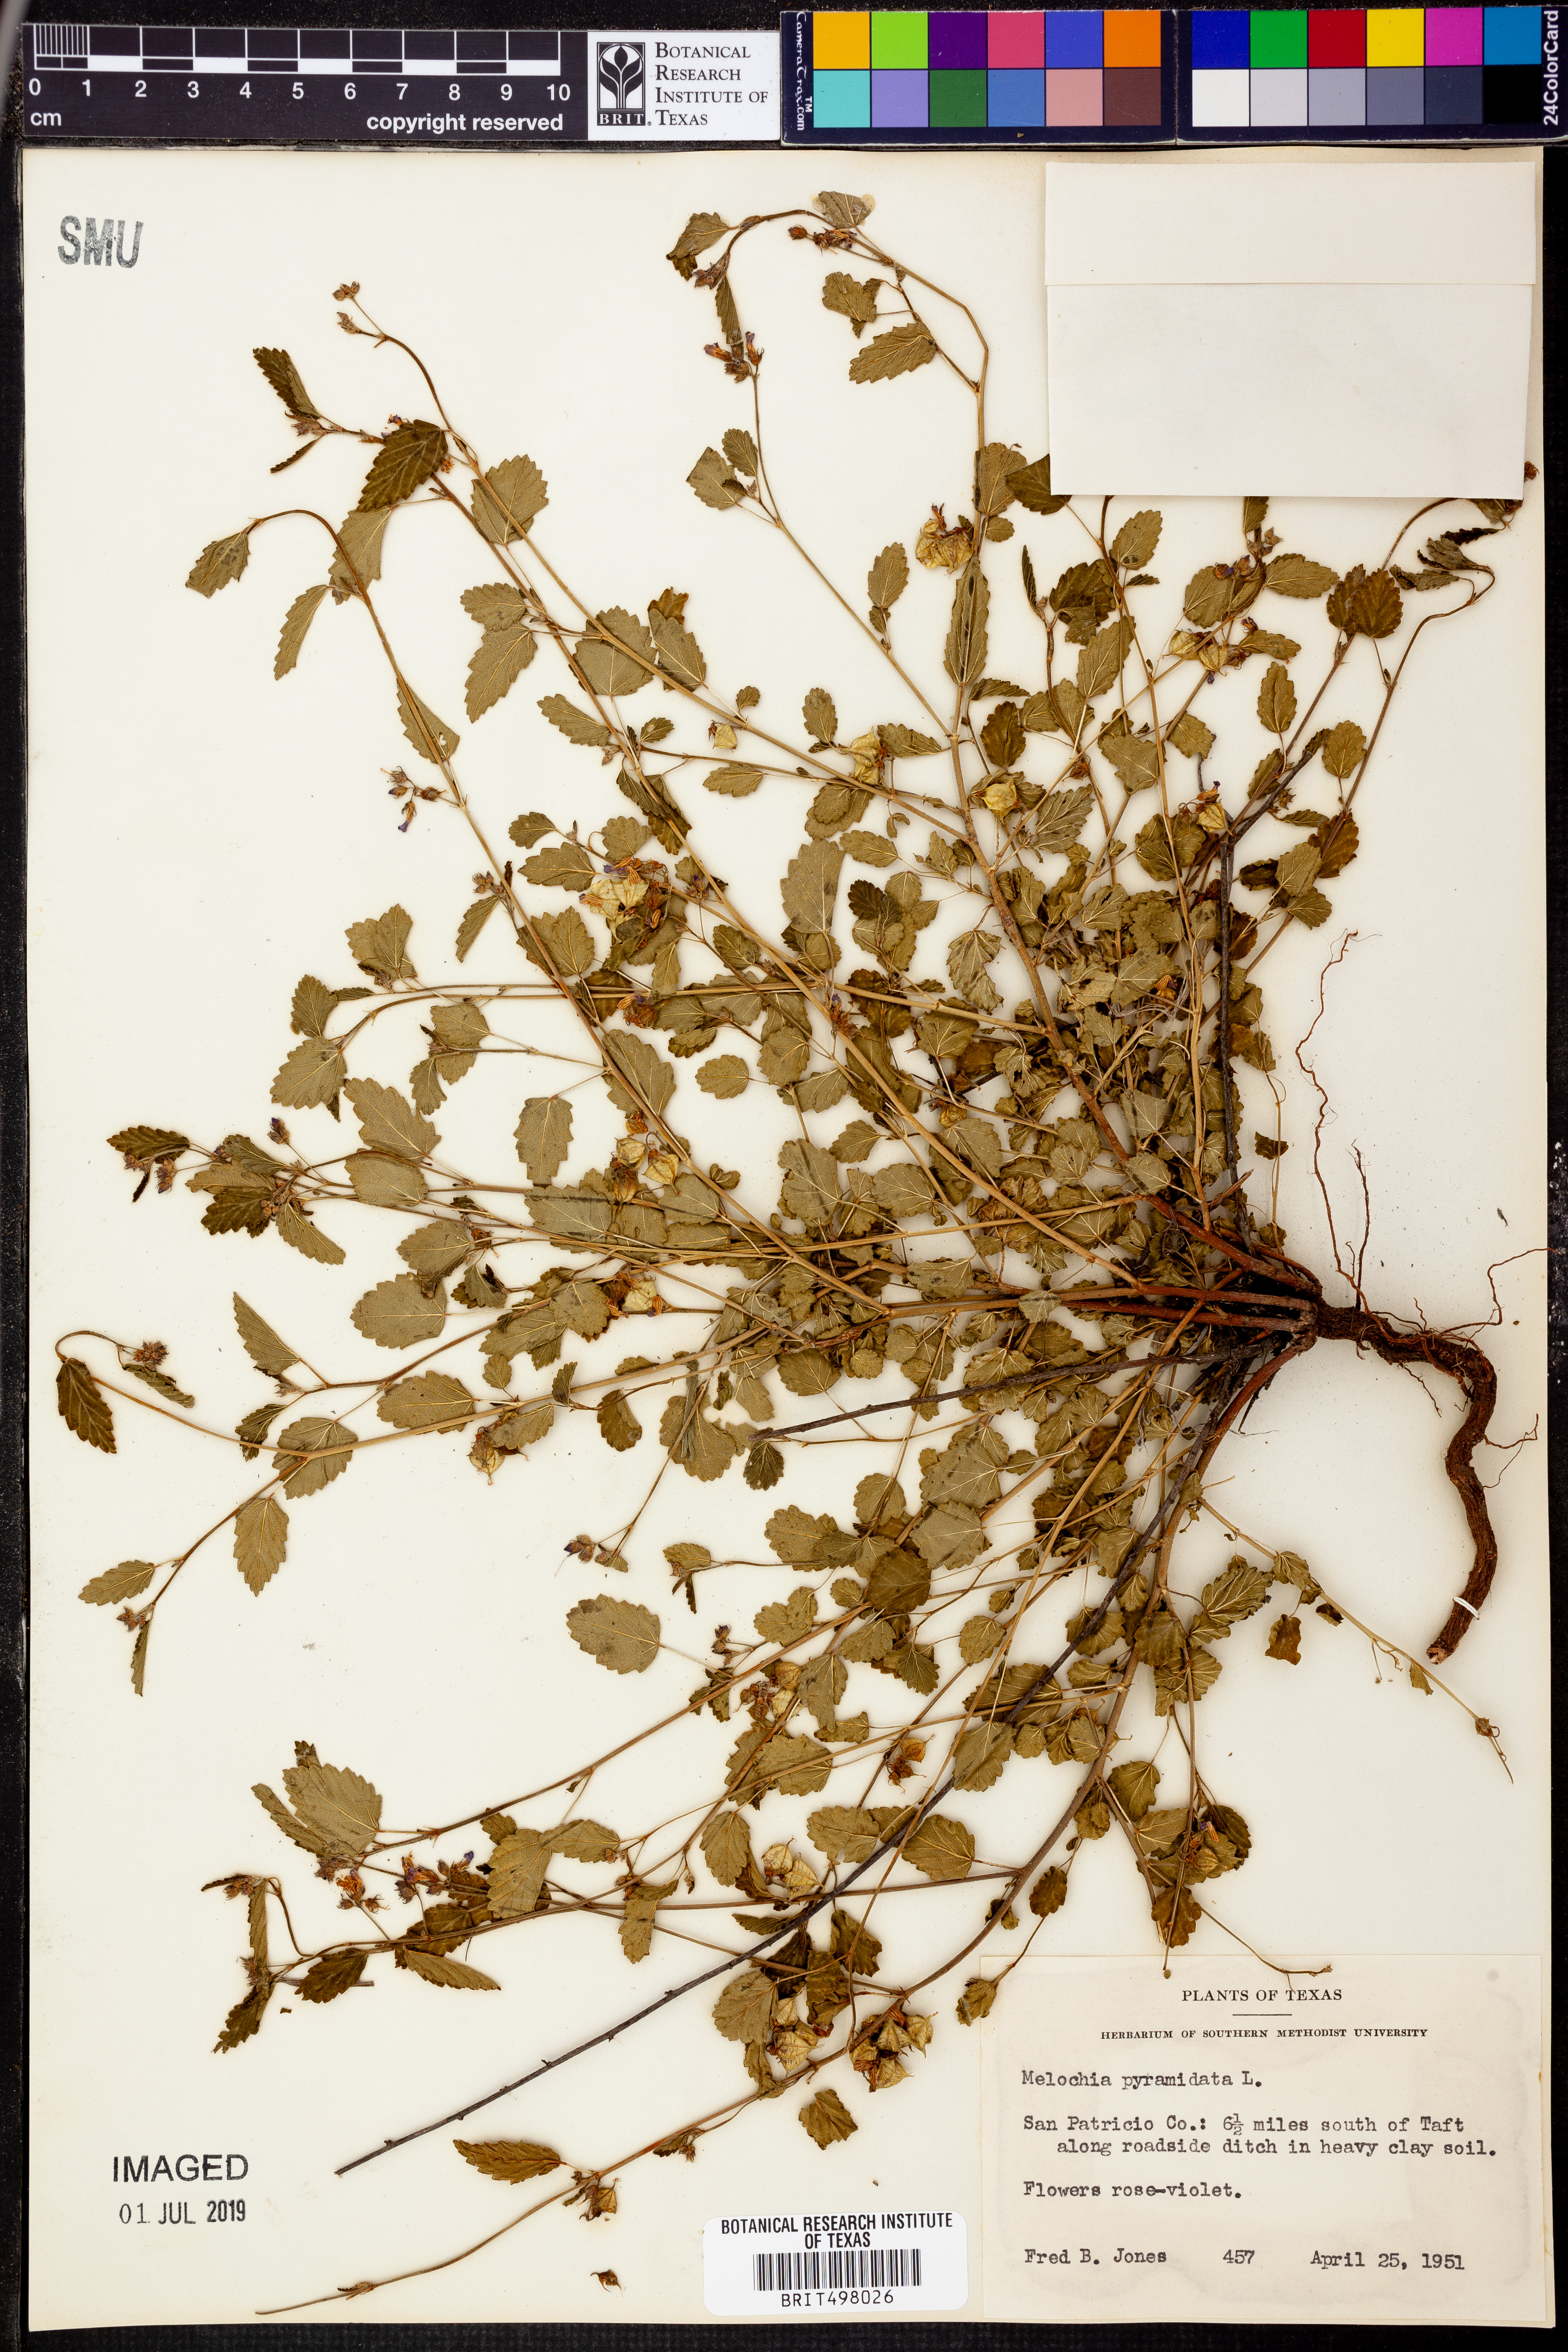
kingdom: Plantae
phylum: Tracheophyta
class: Magnoliopsida
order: Malvales
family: Malvaceae
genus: Melochia
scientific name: Melochia pyramidata
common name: Pyramidflower
